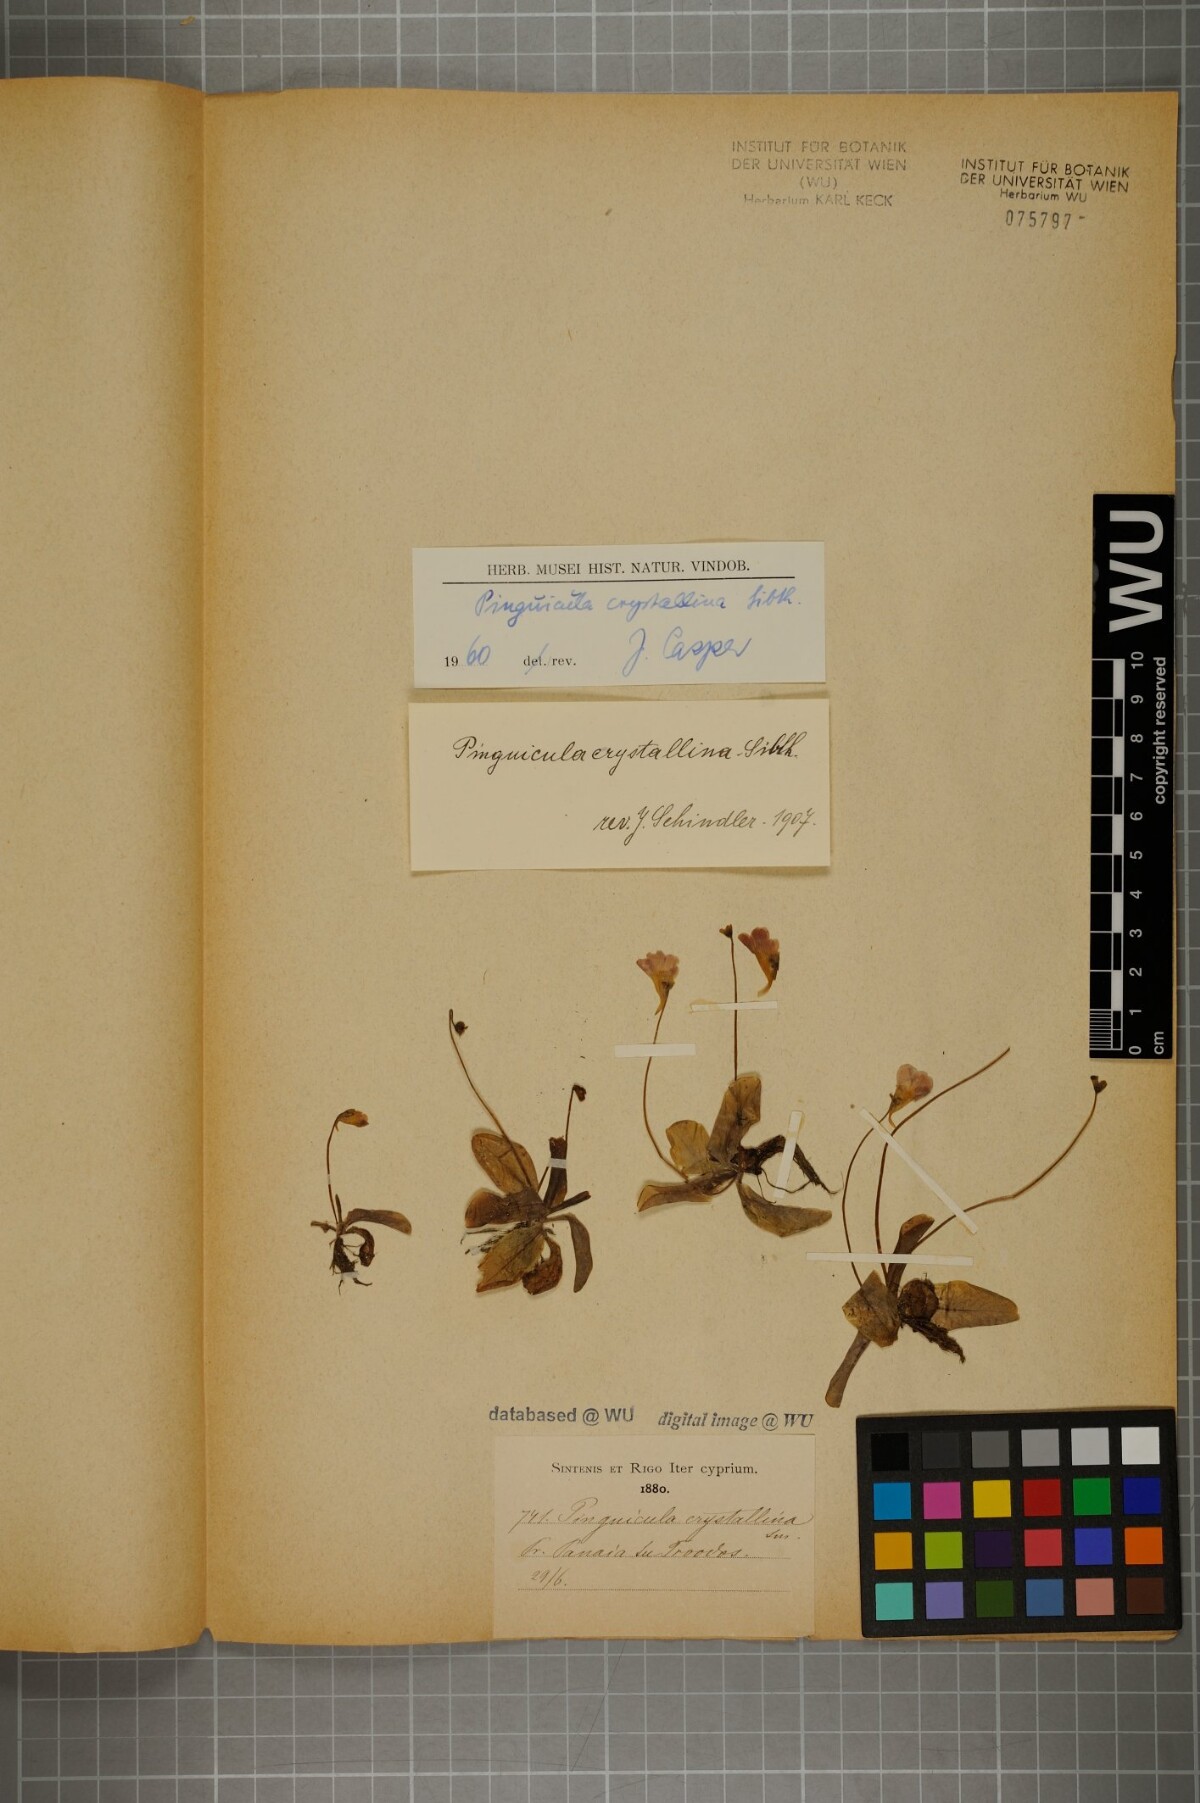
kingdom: Plantae
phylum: Tracheophyta
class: Magnoliopsida
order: Lamiales
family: Lentibulariaceae
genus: Pinguicula
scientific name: Pinguicula crystallina
